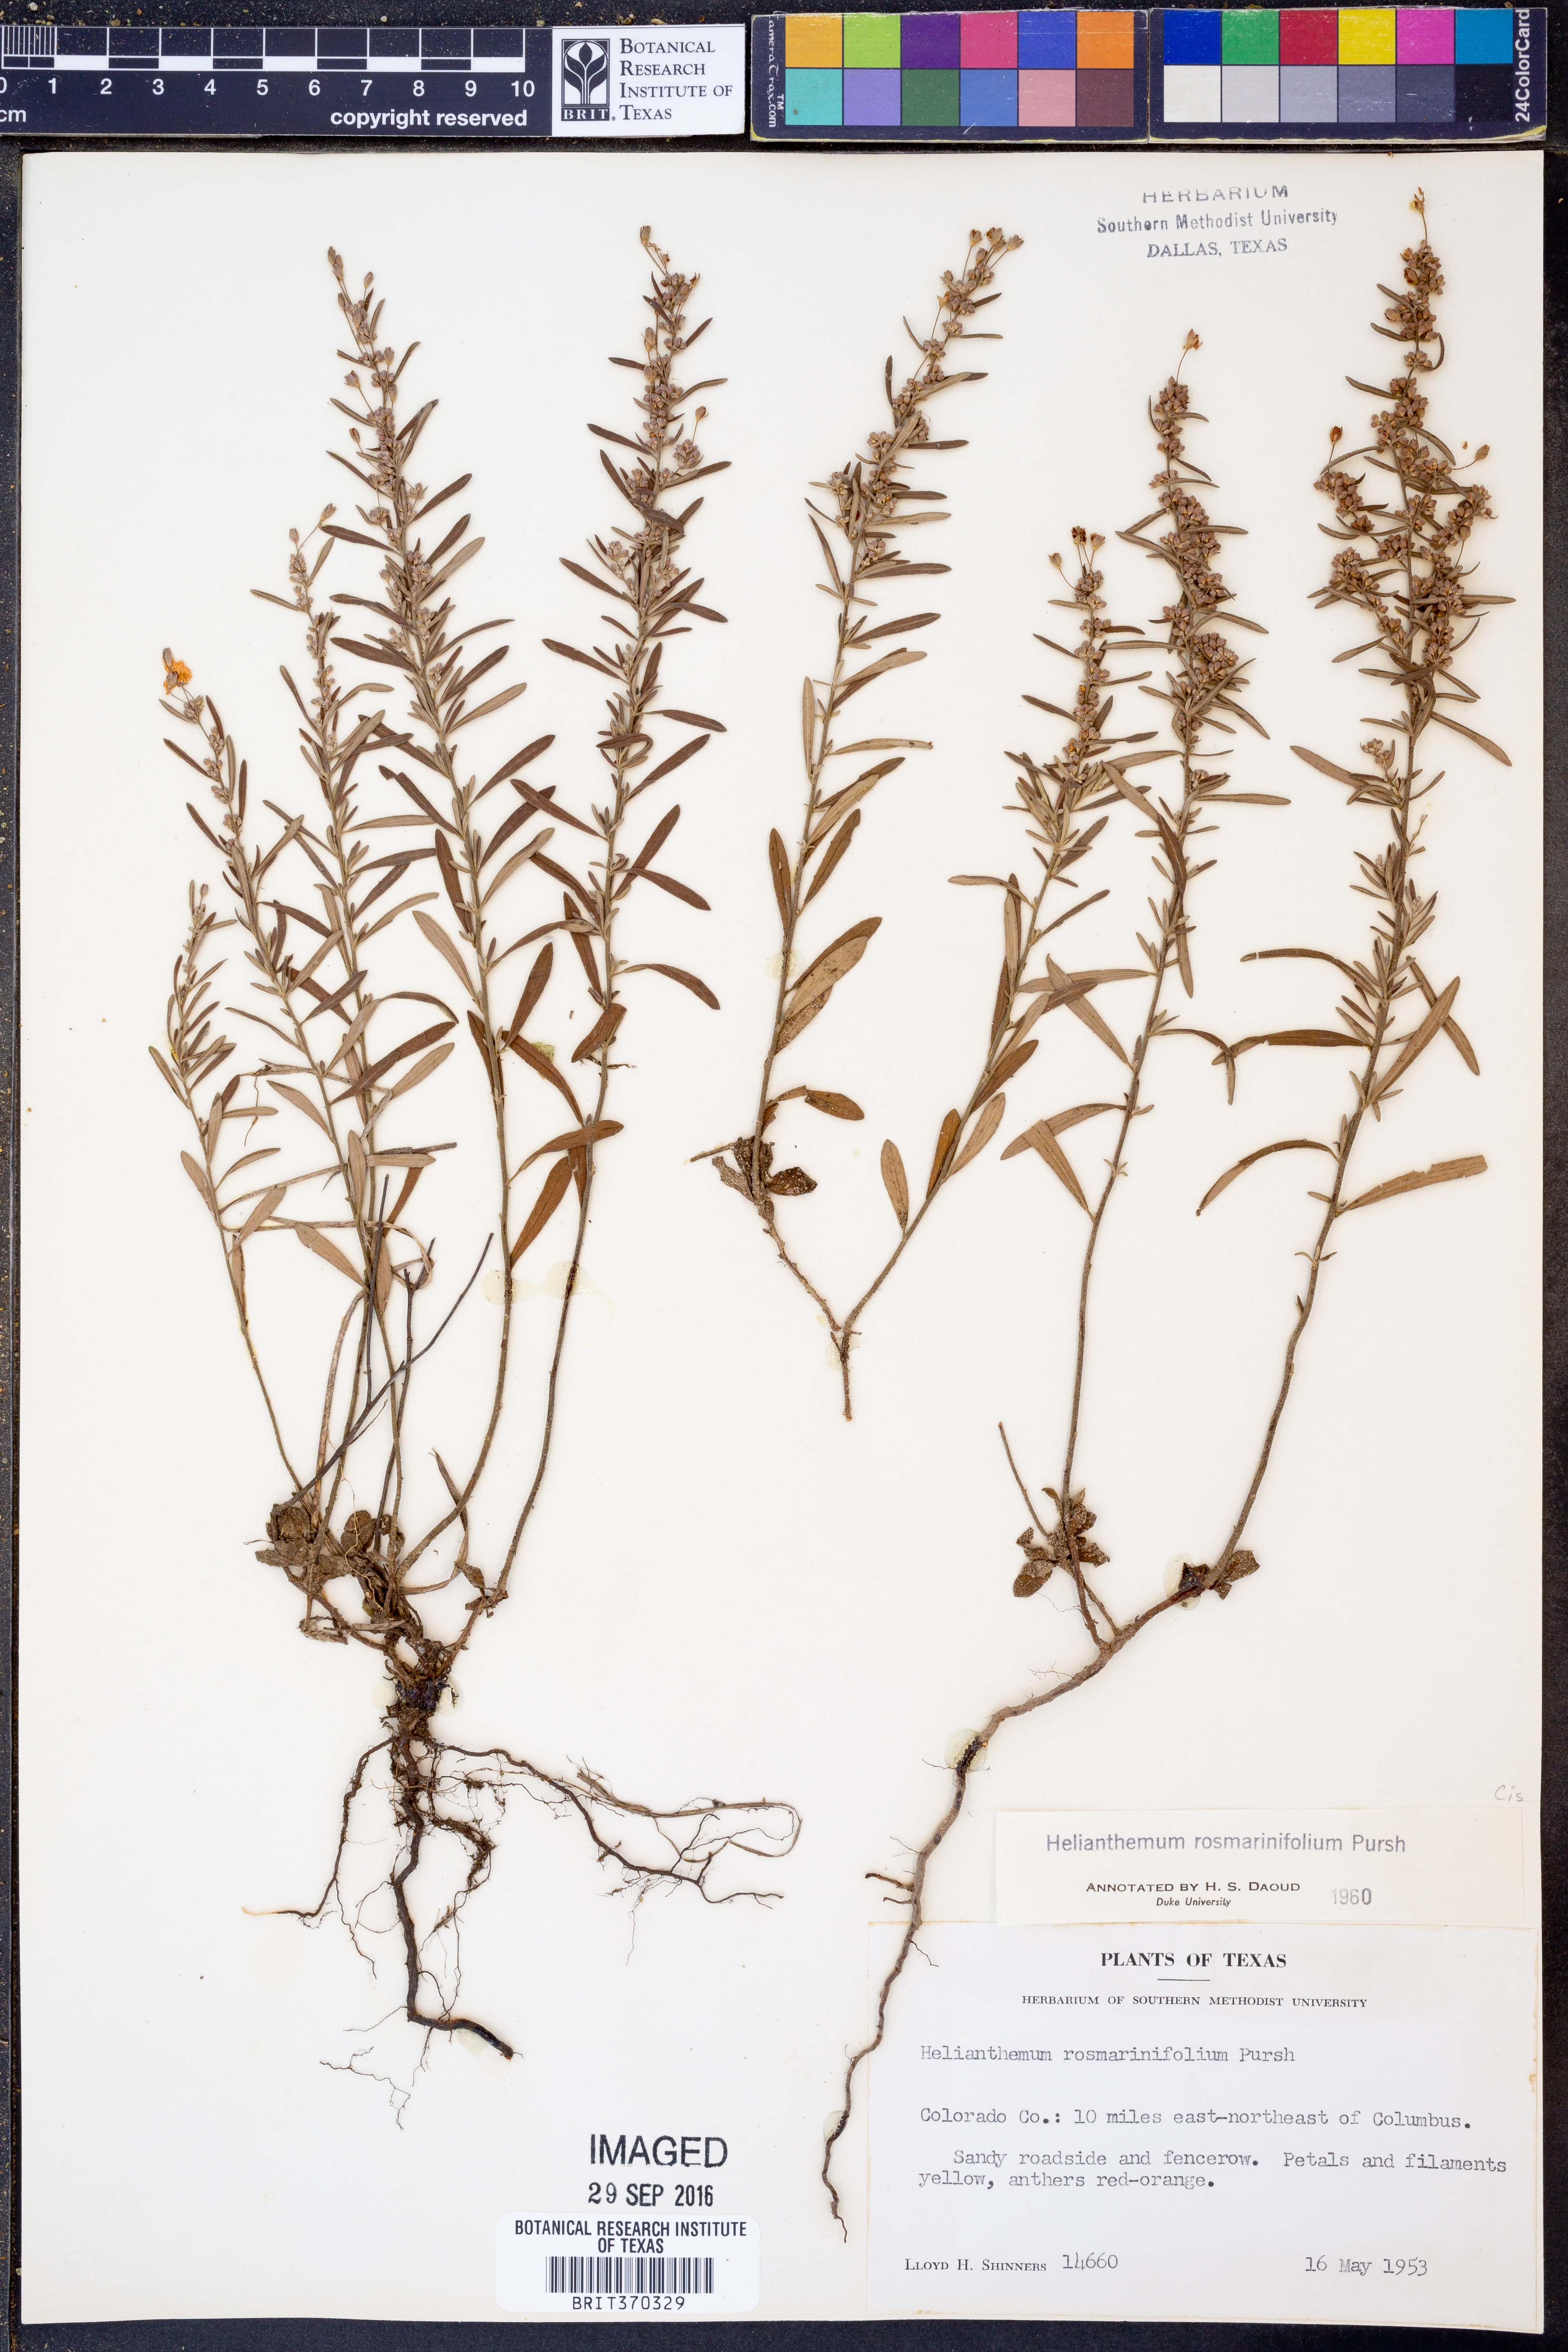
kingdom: Plantae
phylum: Tracheophyta
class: Magnoliopsida
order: Malvales
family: Cistaceae
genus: Crocanthemum
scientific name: Crocanthemum rosmarinifolium
